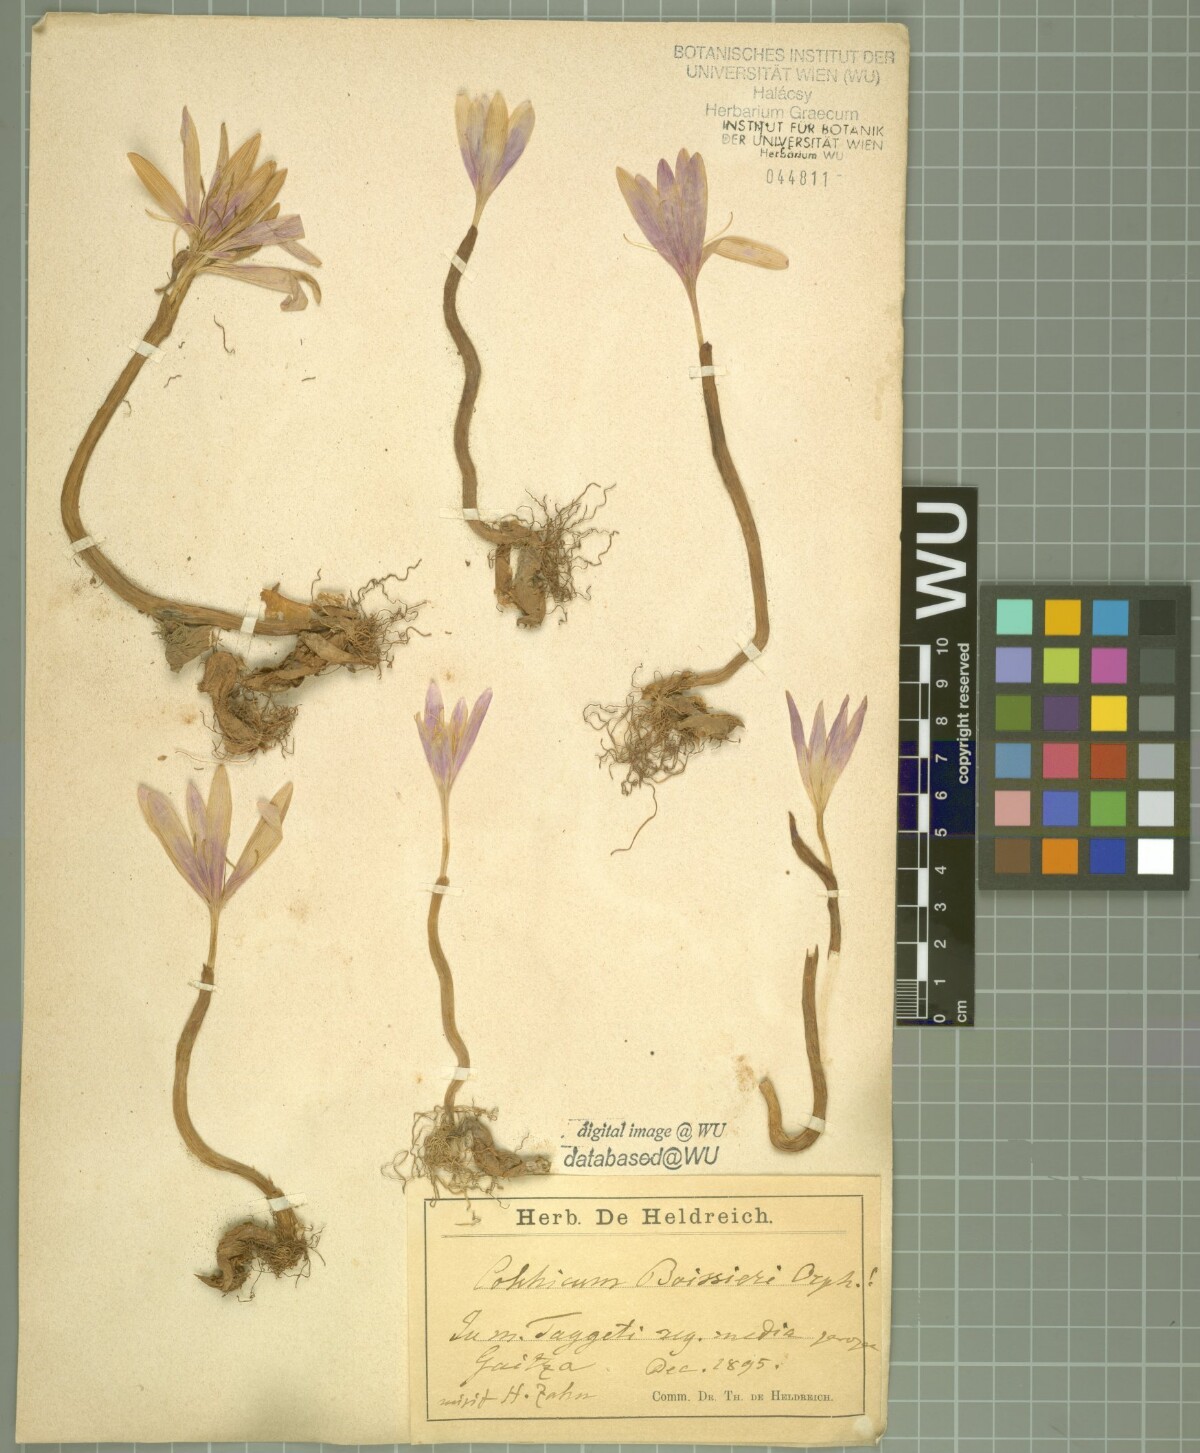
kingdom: Plantae
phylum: Tracheophyta
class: Liliopsida
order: Liliales
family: Colchicaceae
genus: Colchicum
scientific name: Colchicum boissieri
